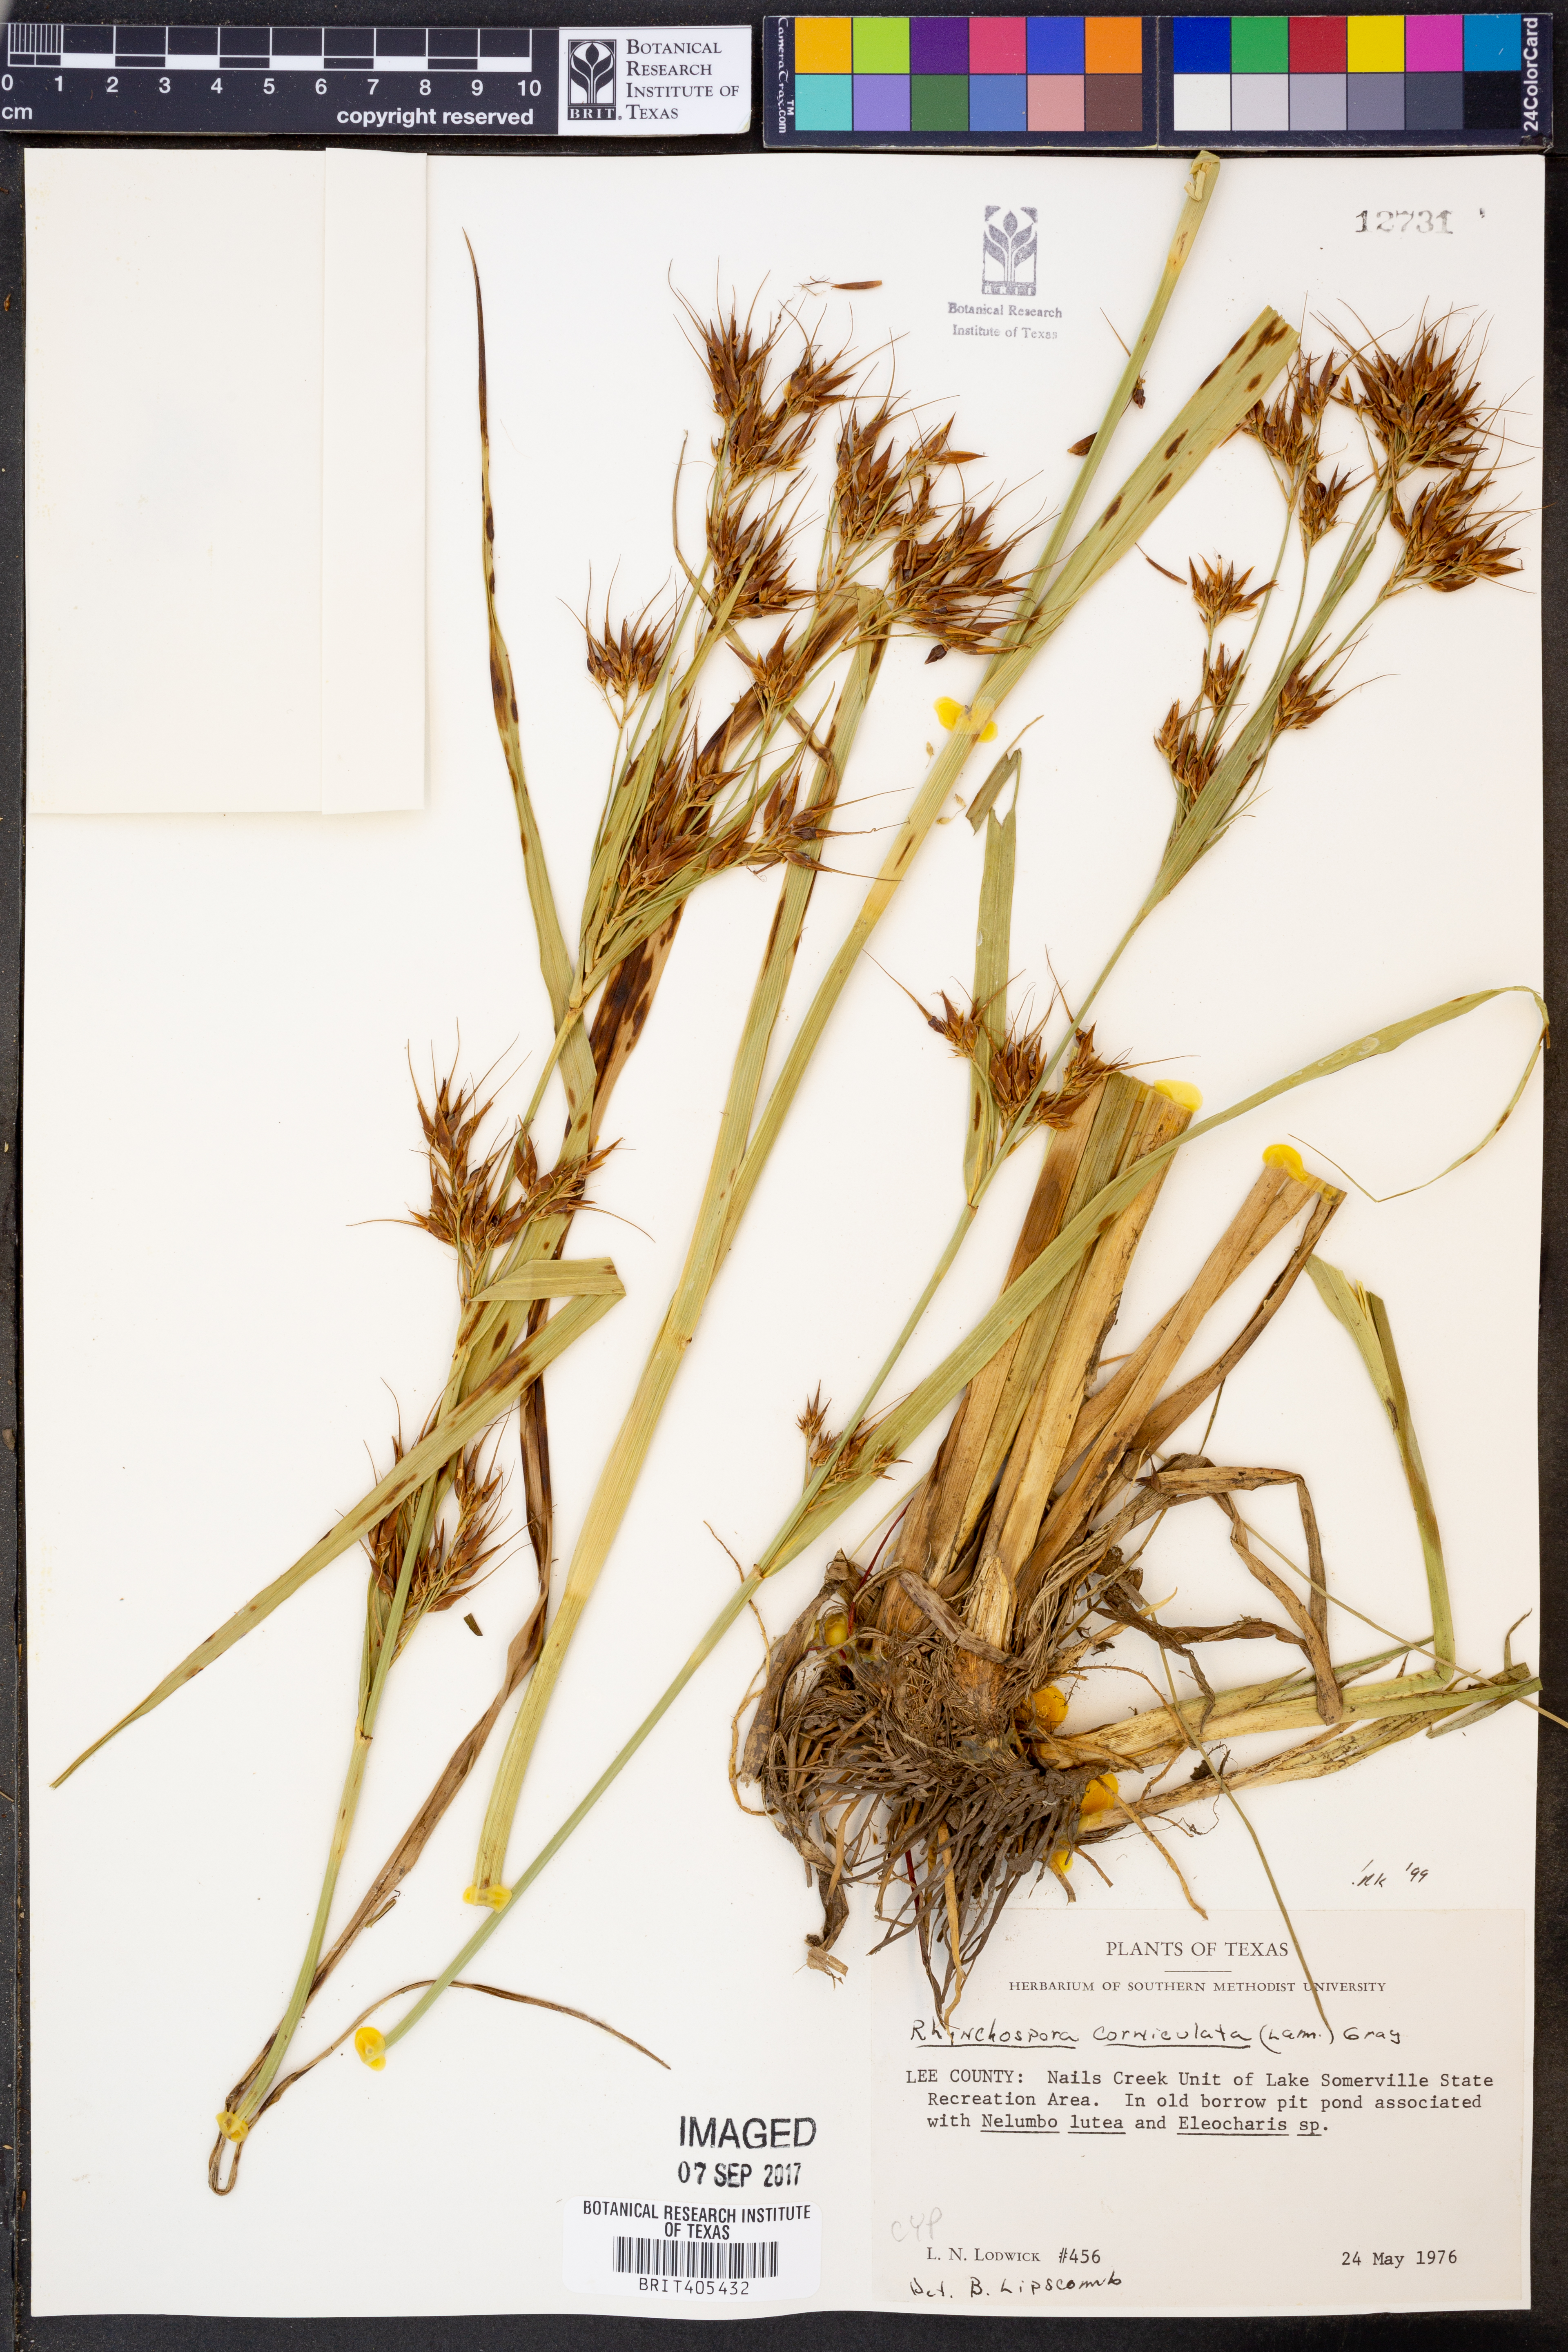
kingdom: Plantae
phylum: Tracheophyta
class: Liliopsida
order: Poales
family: Cyperaceae
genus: Rhynchospora
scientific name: Rhynchospora corniculata
